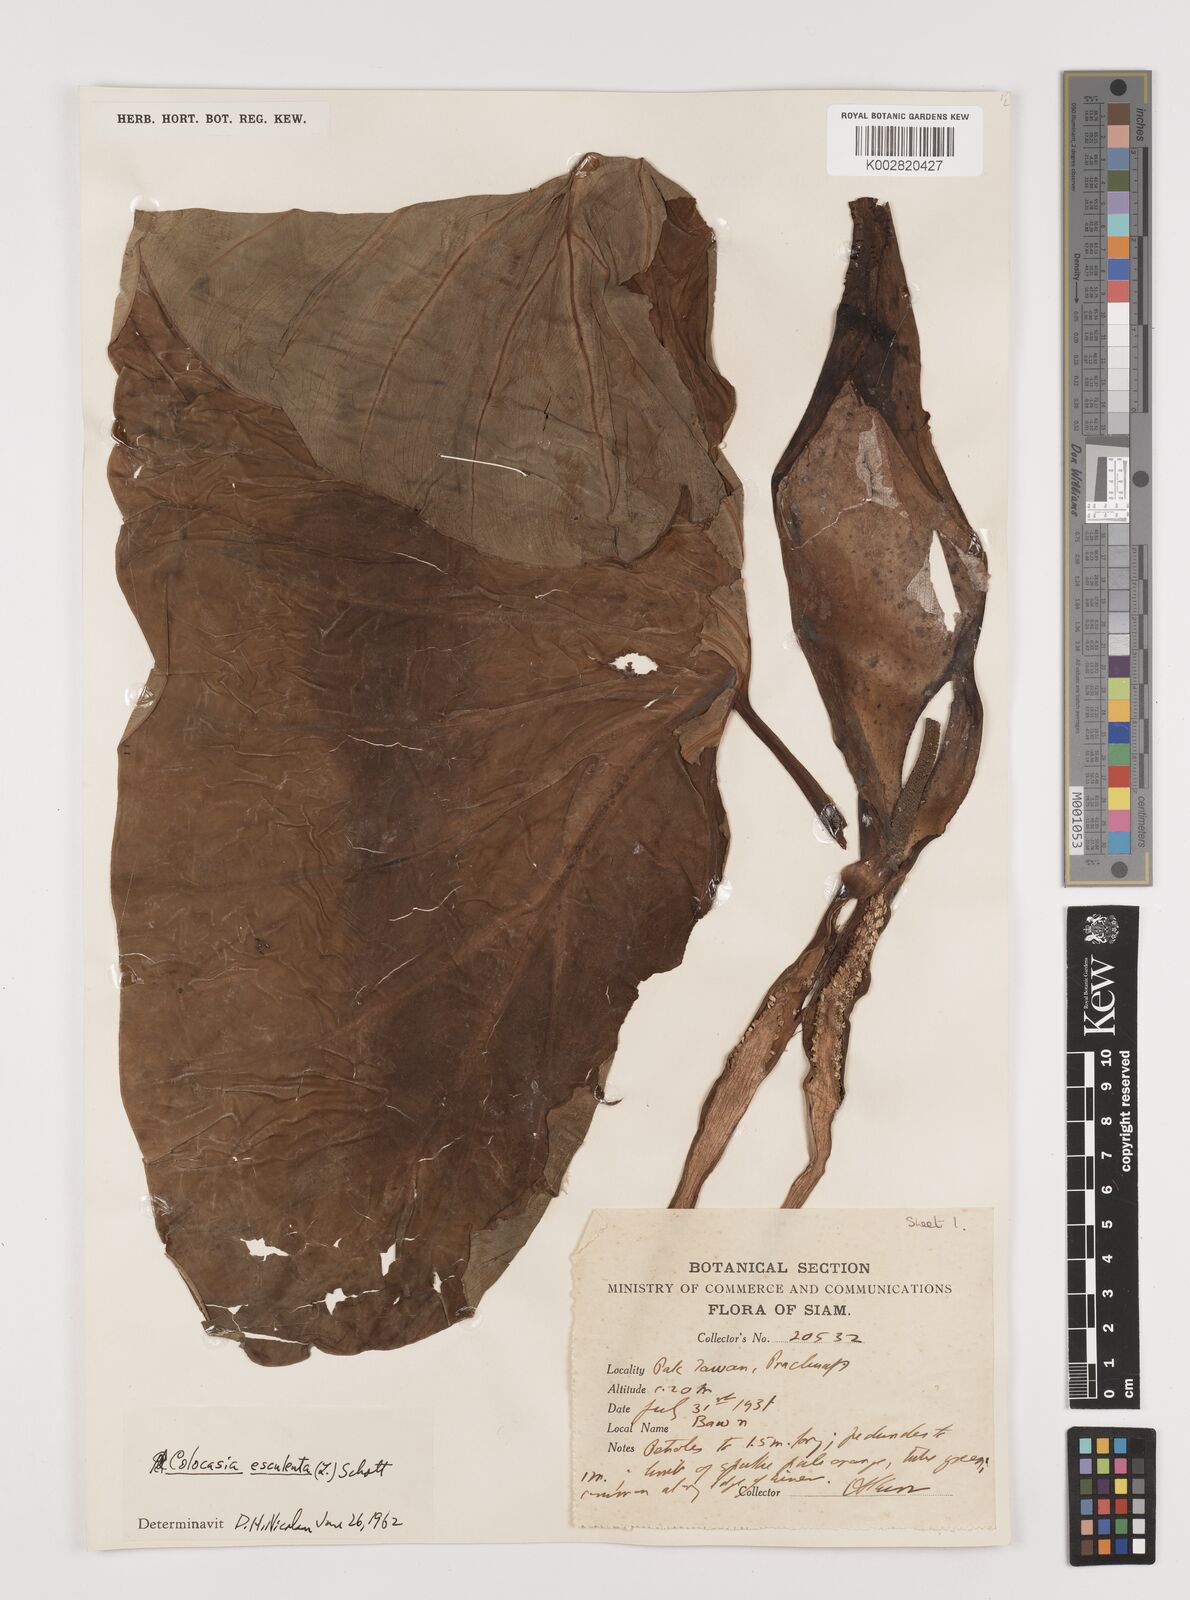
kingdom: Plantae
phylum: Tracheophyta
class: Liliopsida
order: Alismatales
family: Araceae
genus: Colocasia
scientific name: Colocasia esculenta
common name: Taro
